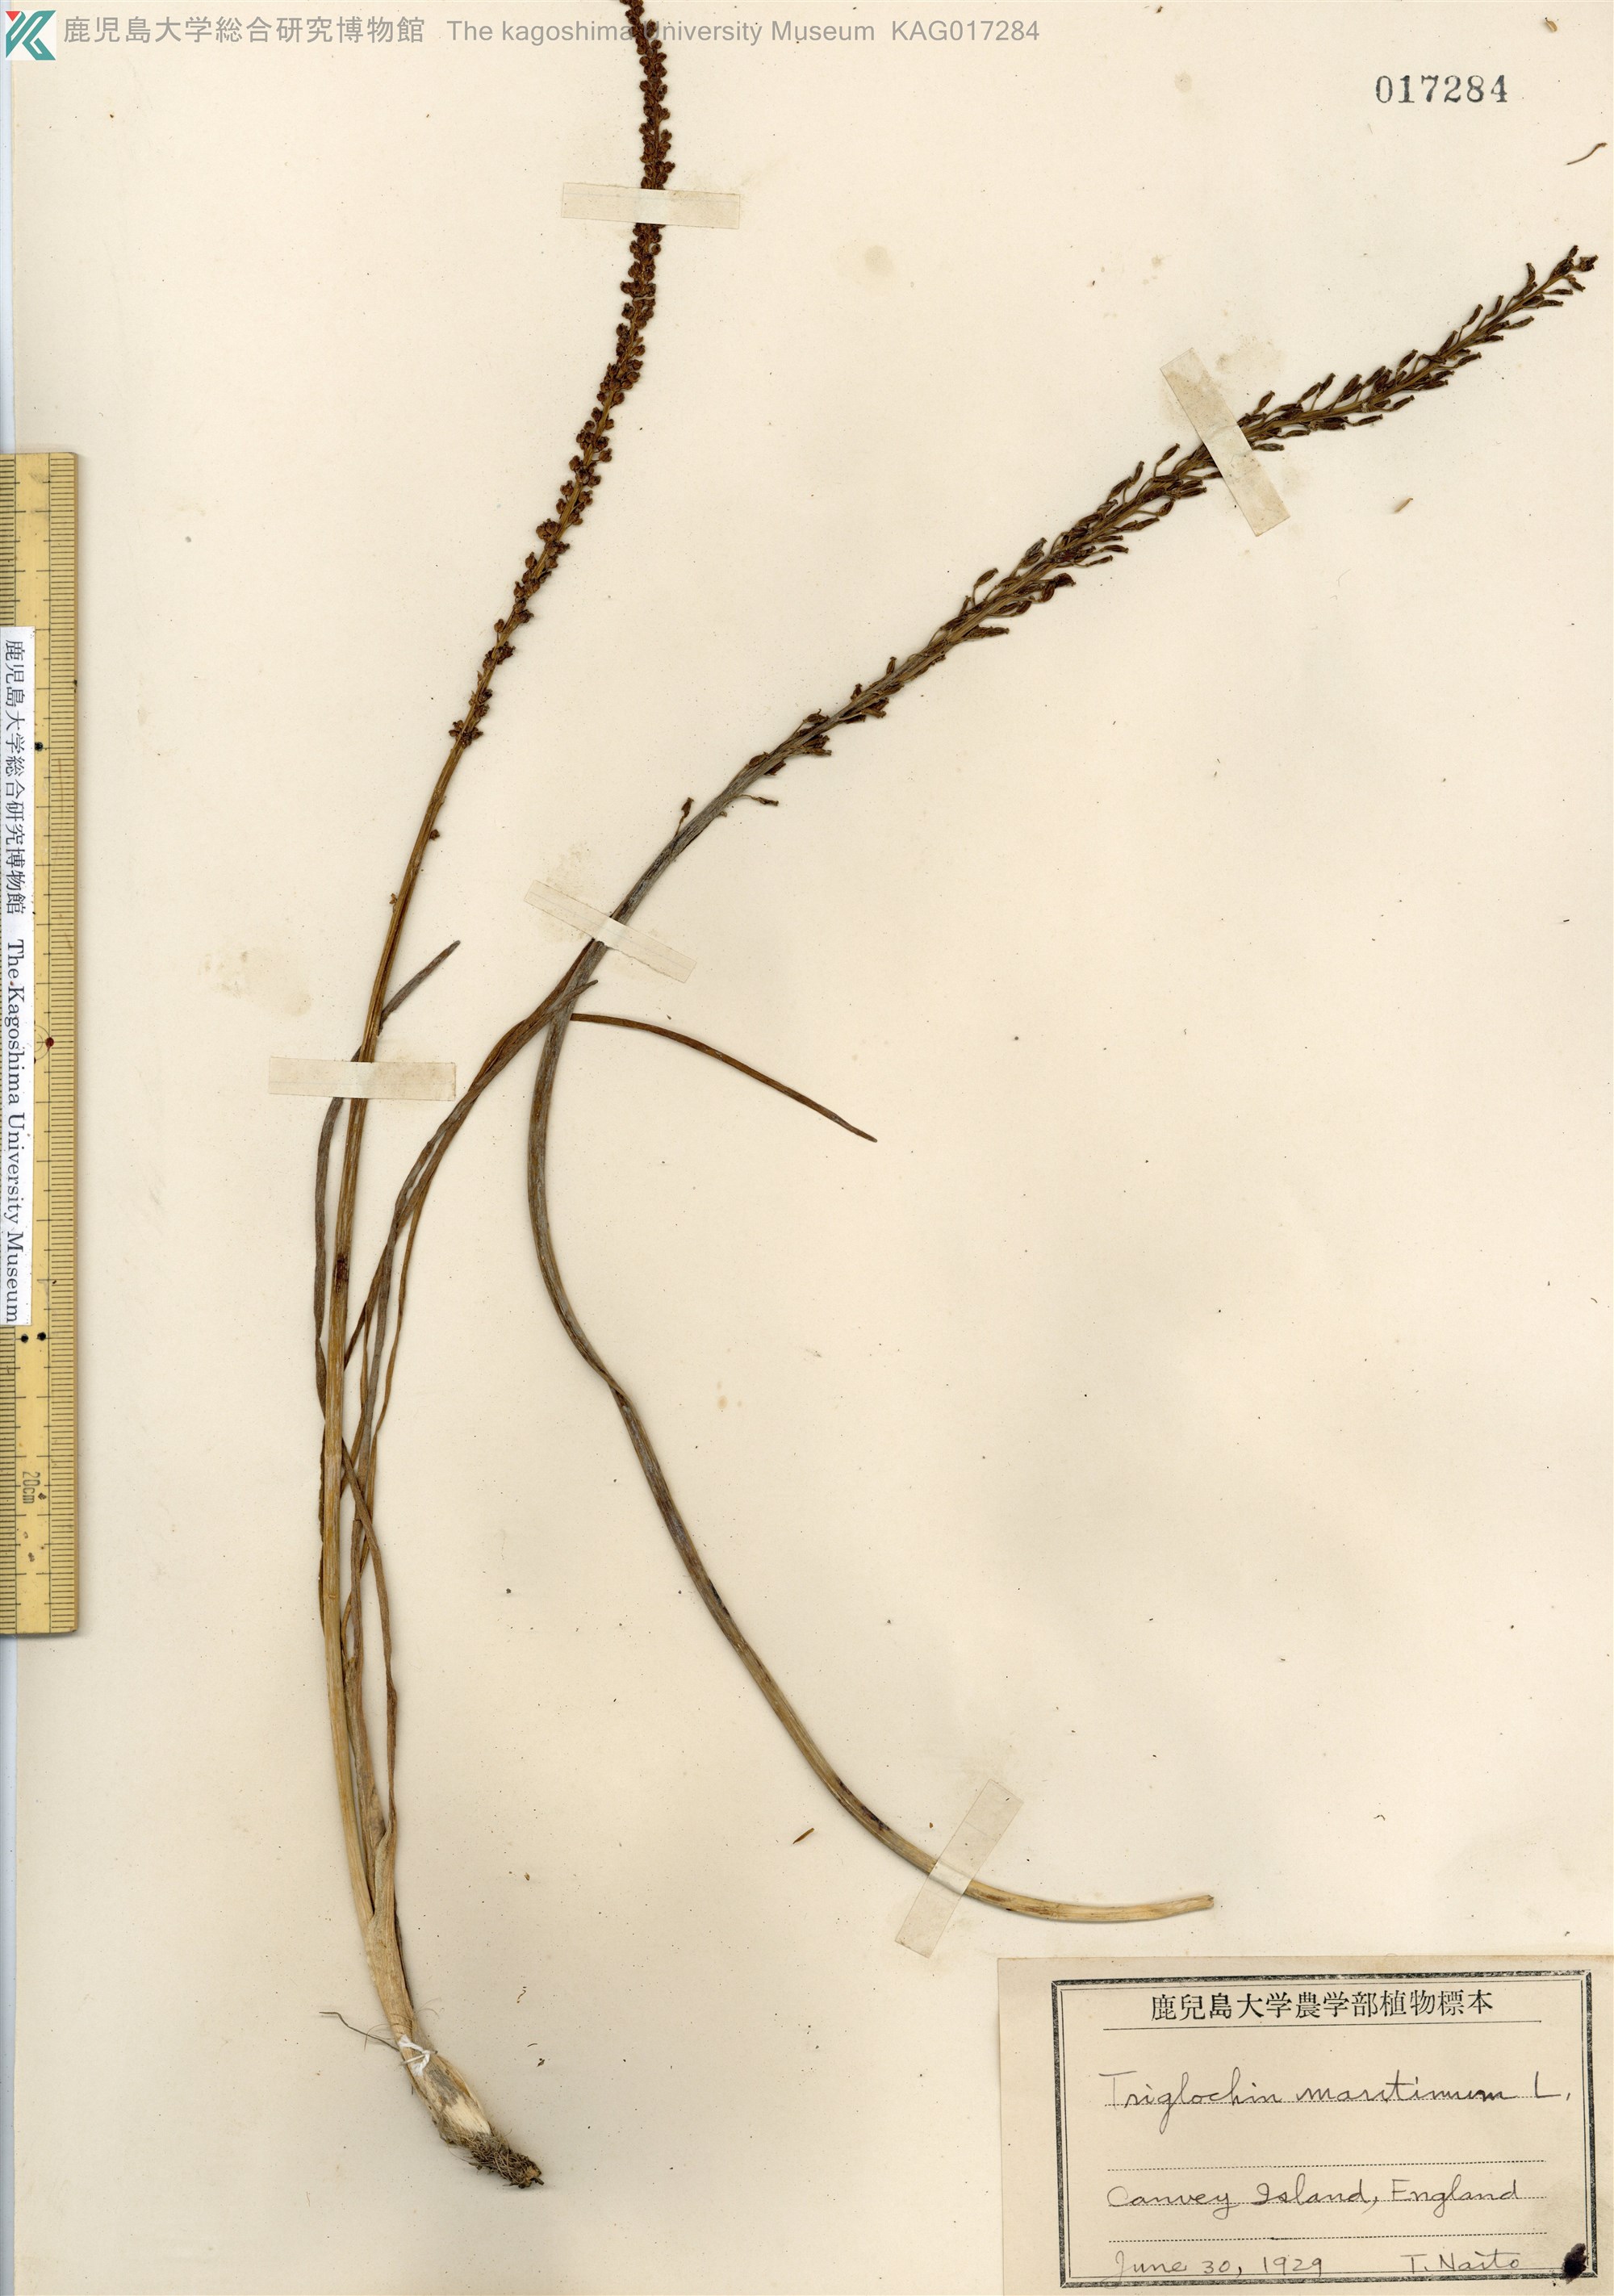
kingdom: Plantae
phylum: Tracheophyta
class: Liliopsida
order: Alismatales
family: Juncaginaceae
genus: Triglochin
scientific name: Triglochin maritima
